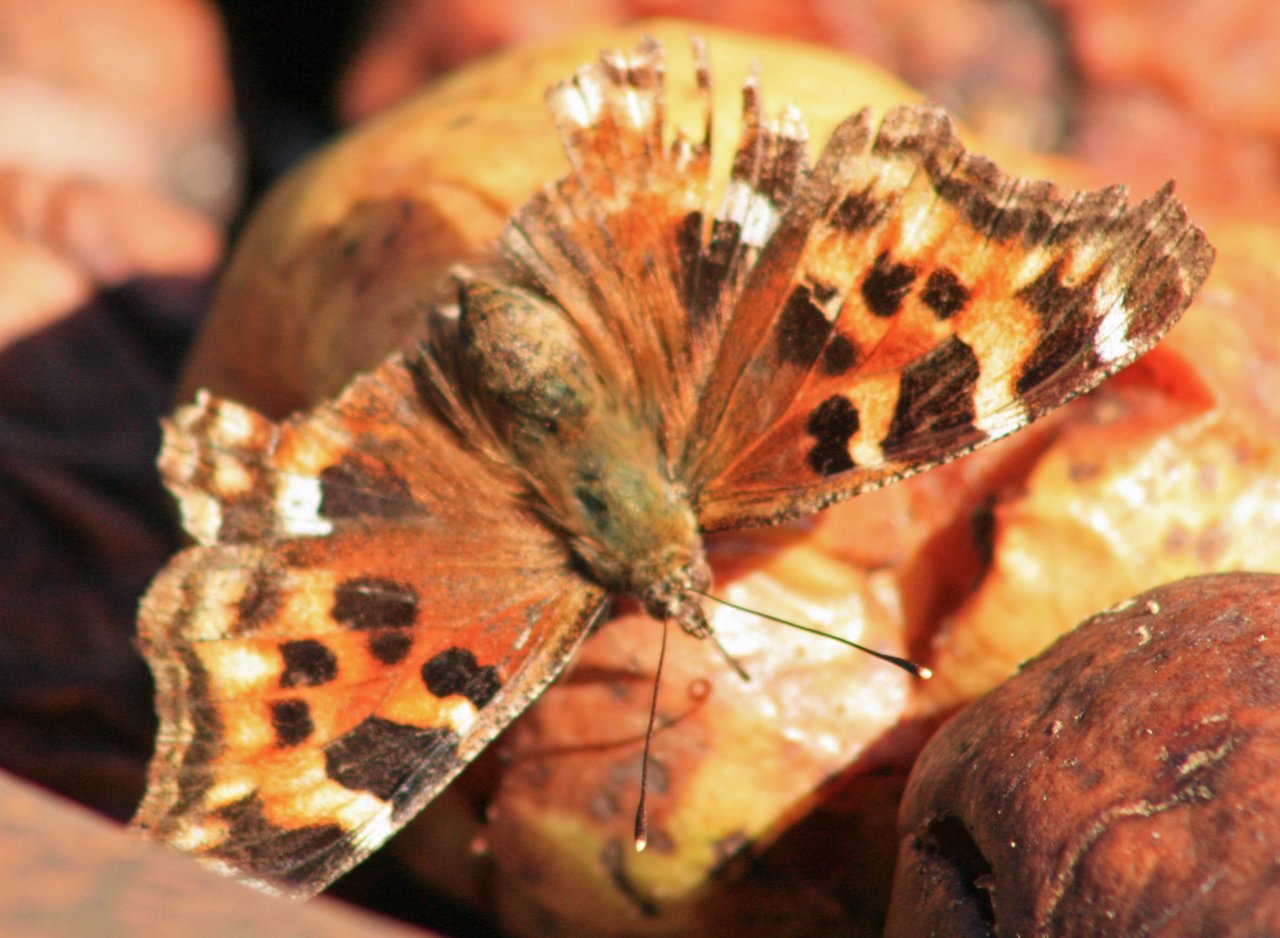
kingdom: Animalia
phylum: Arthropoda
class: Insecta
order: Lepidoptera
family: Nymphalidae
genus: Polygonia
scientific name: Polygonia vaualbum
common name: Compton Tortoiseshell
